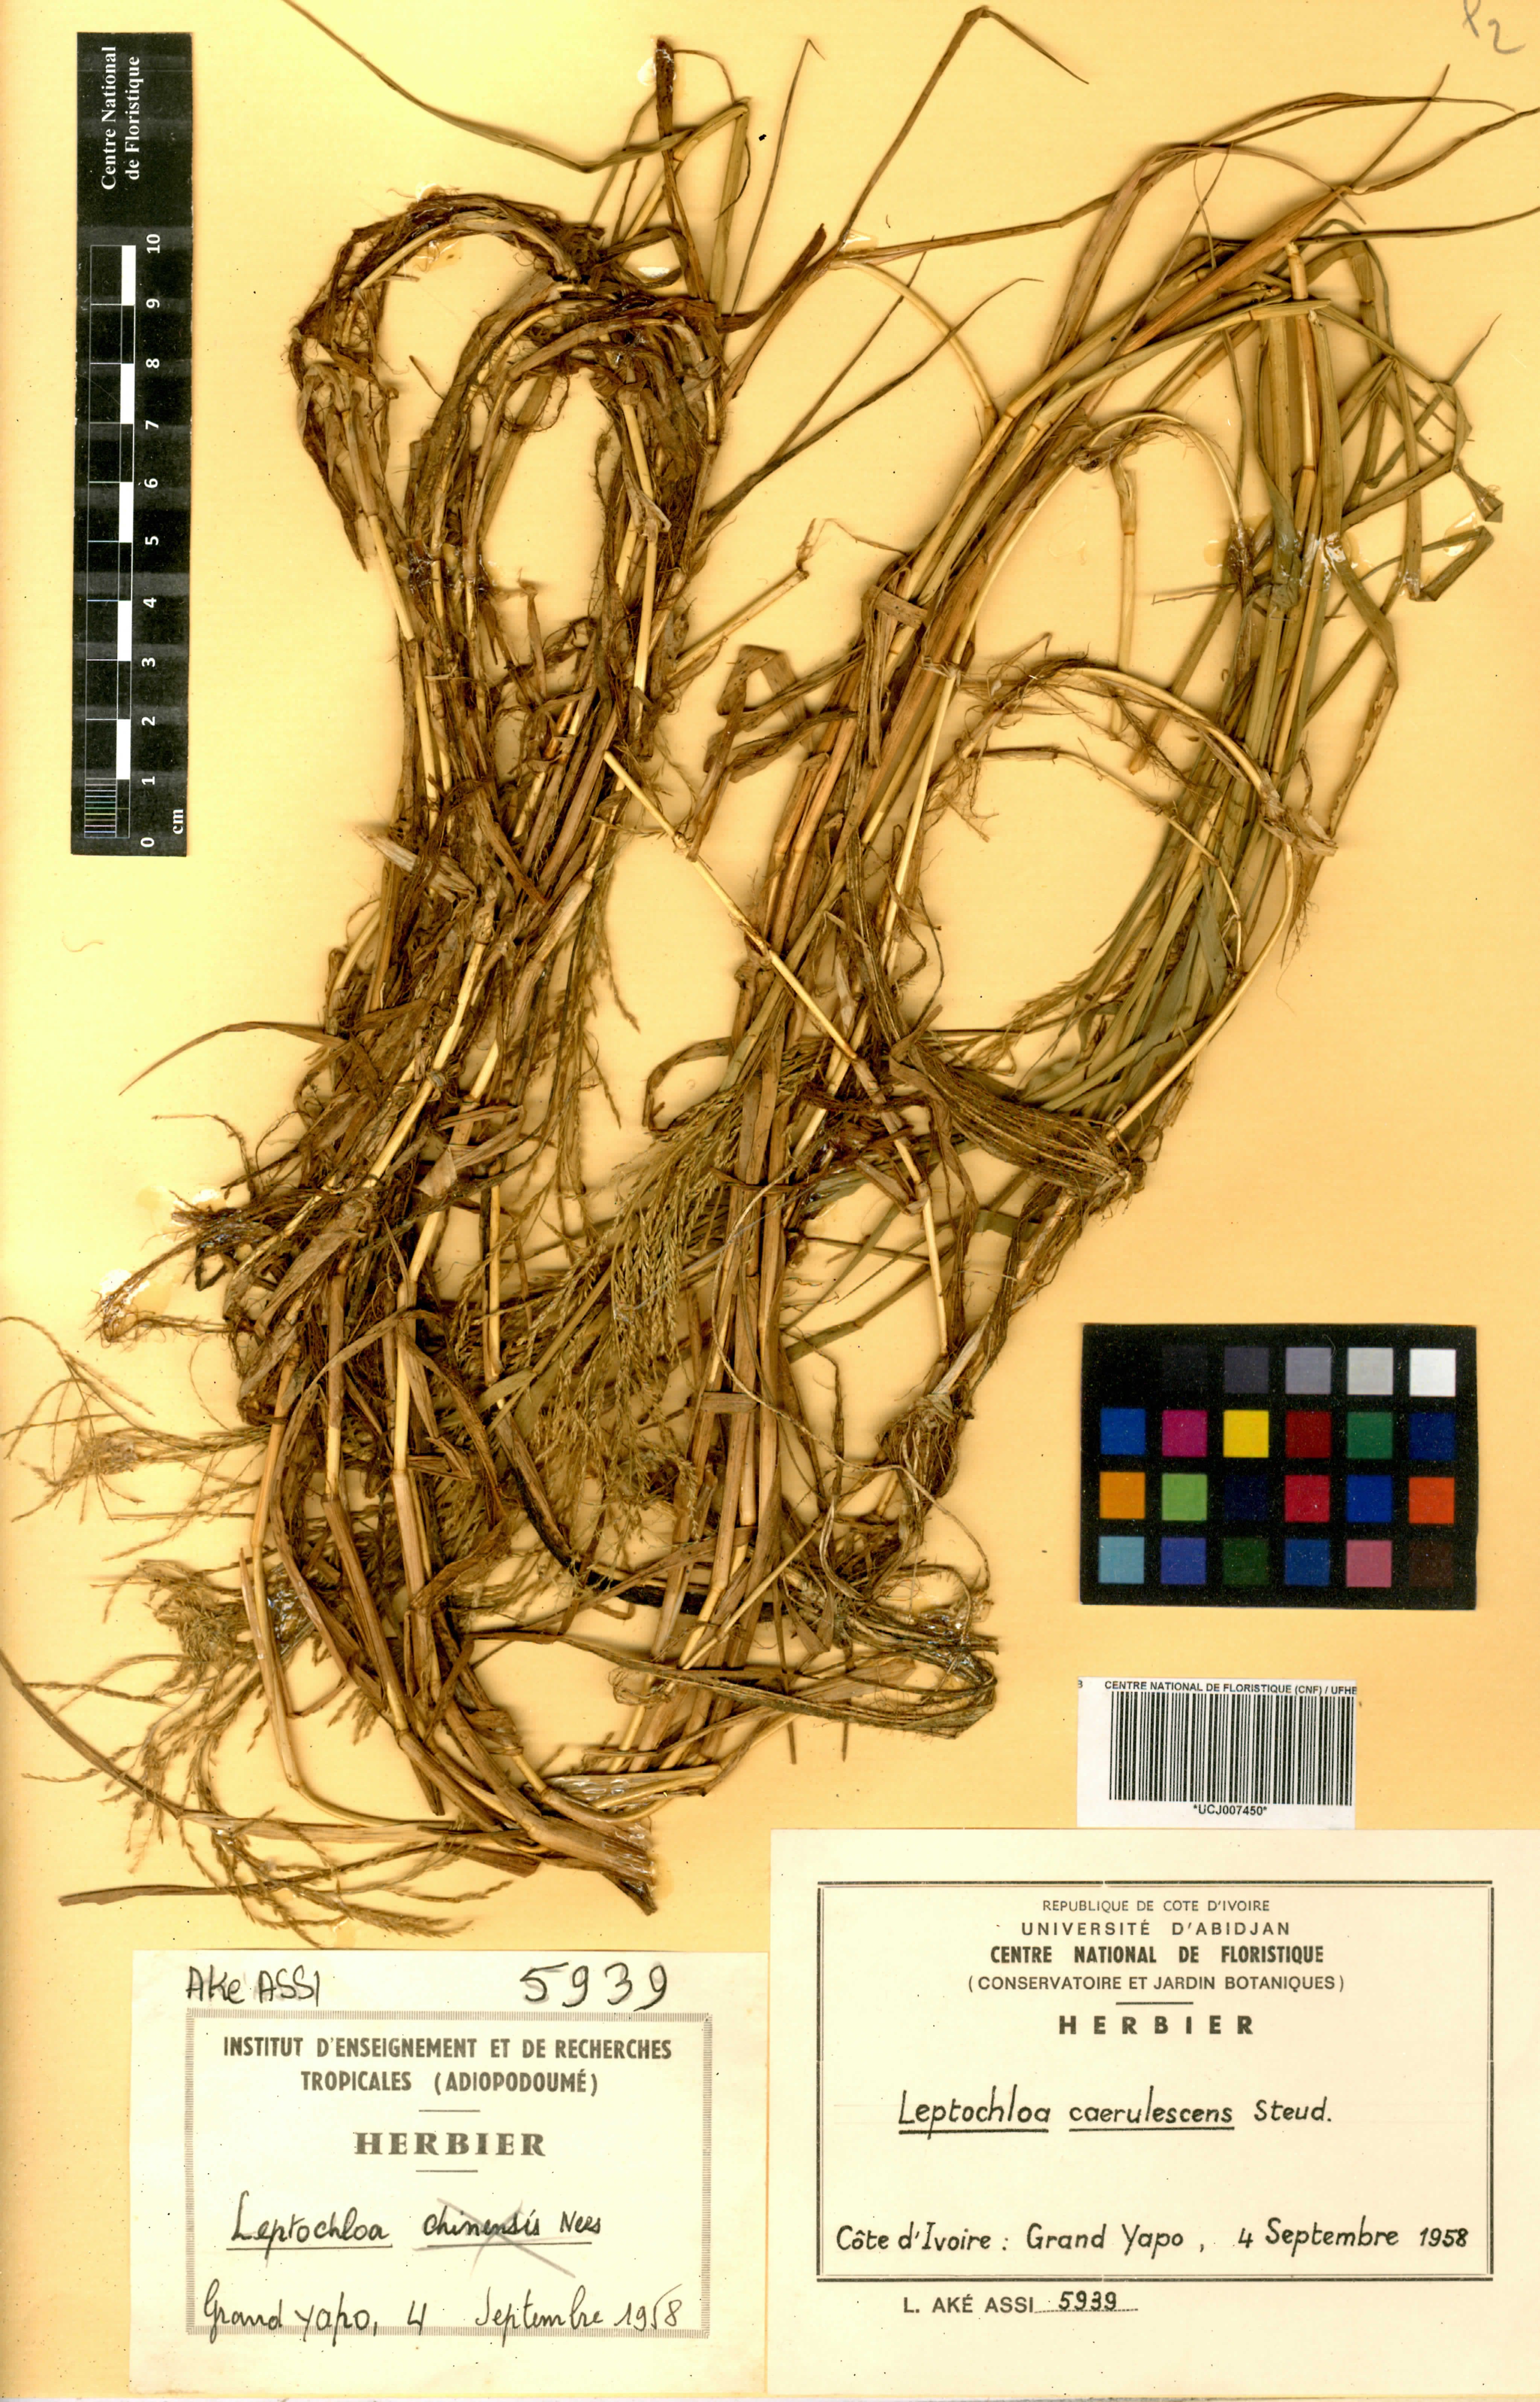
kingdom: Plantae
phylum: Tracheophyta
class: Liliopsida
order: Poales
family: Poaceae
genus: Leptochloa
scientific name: Leptochloa caerulescens
